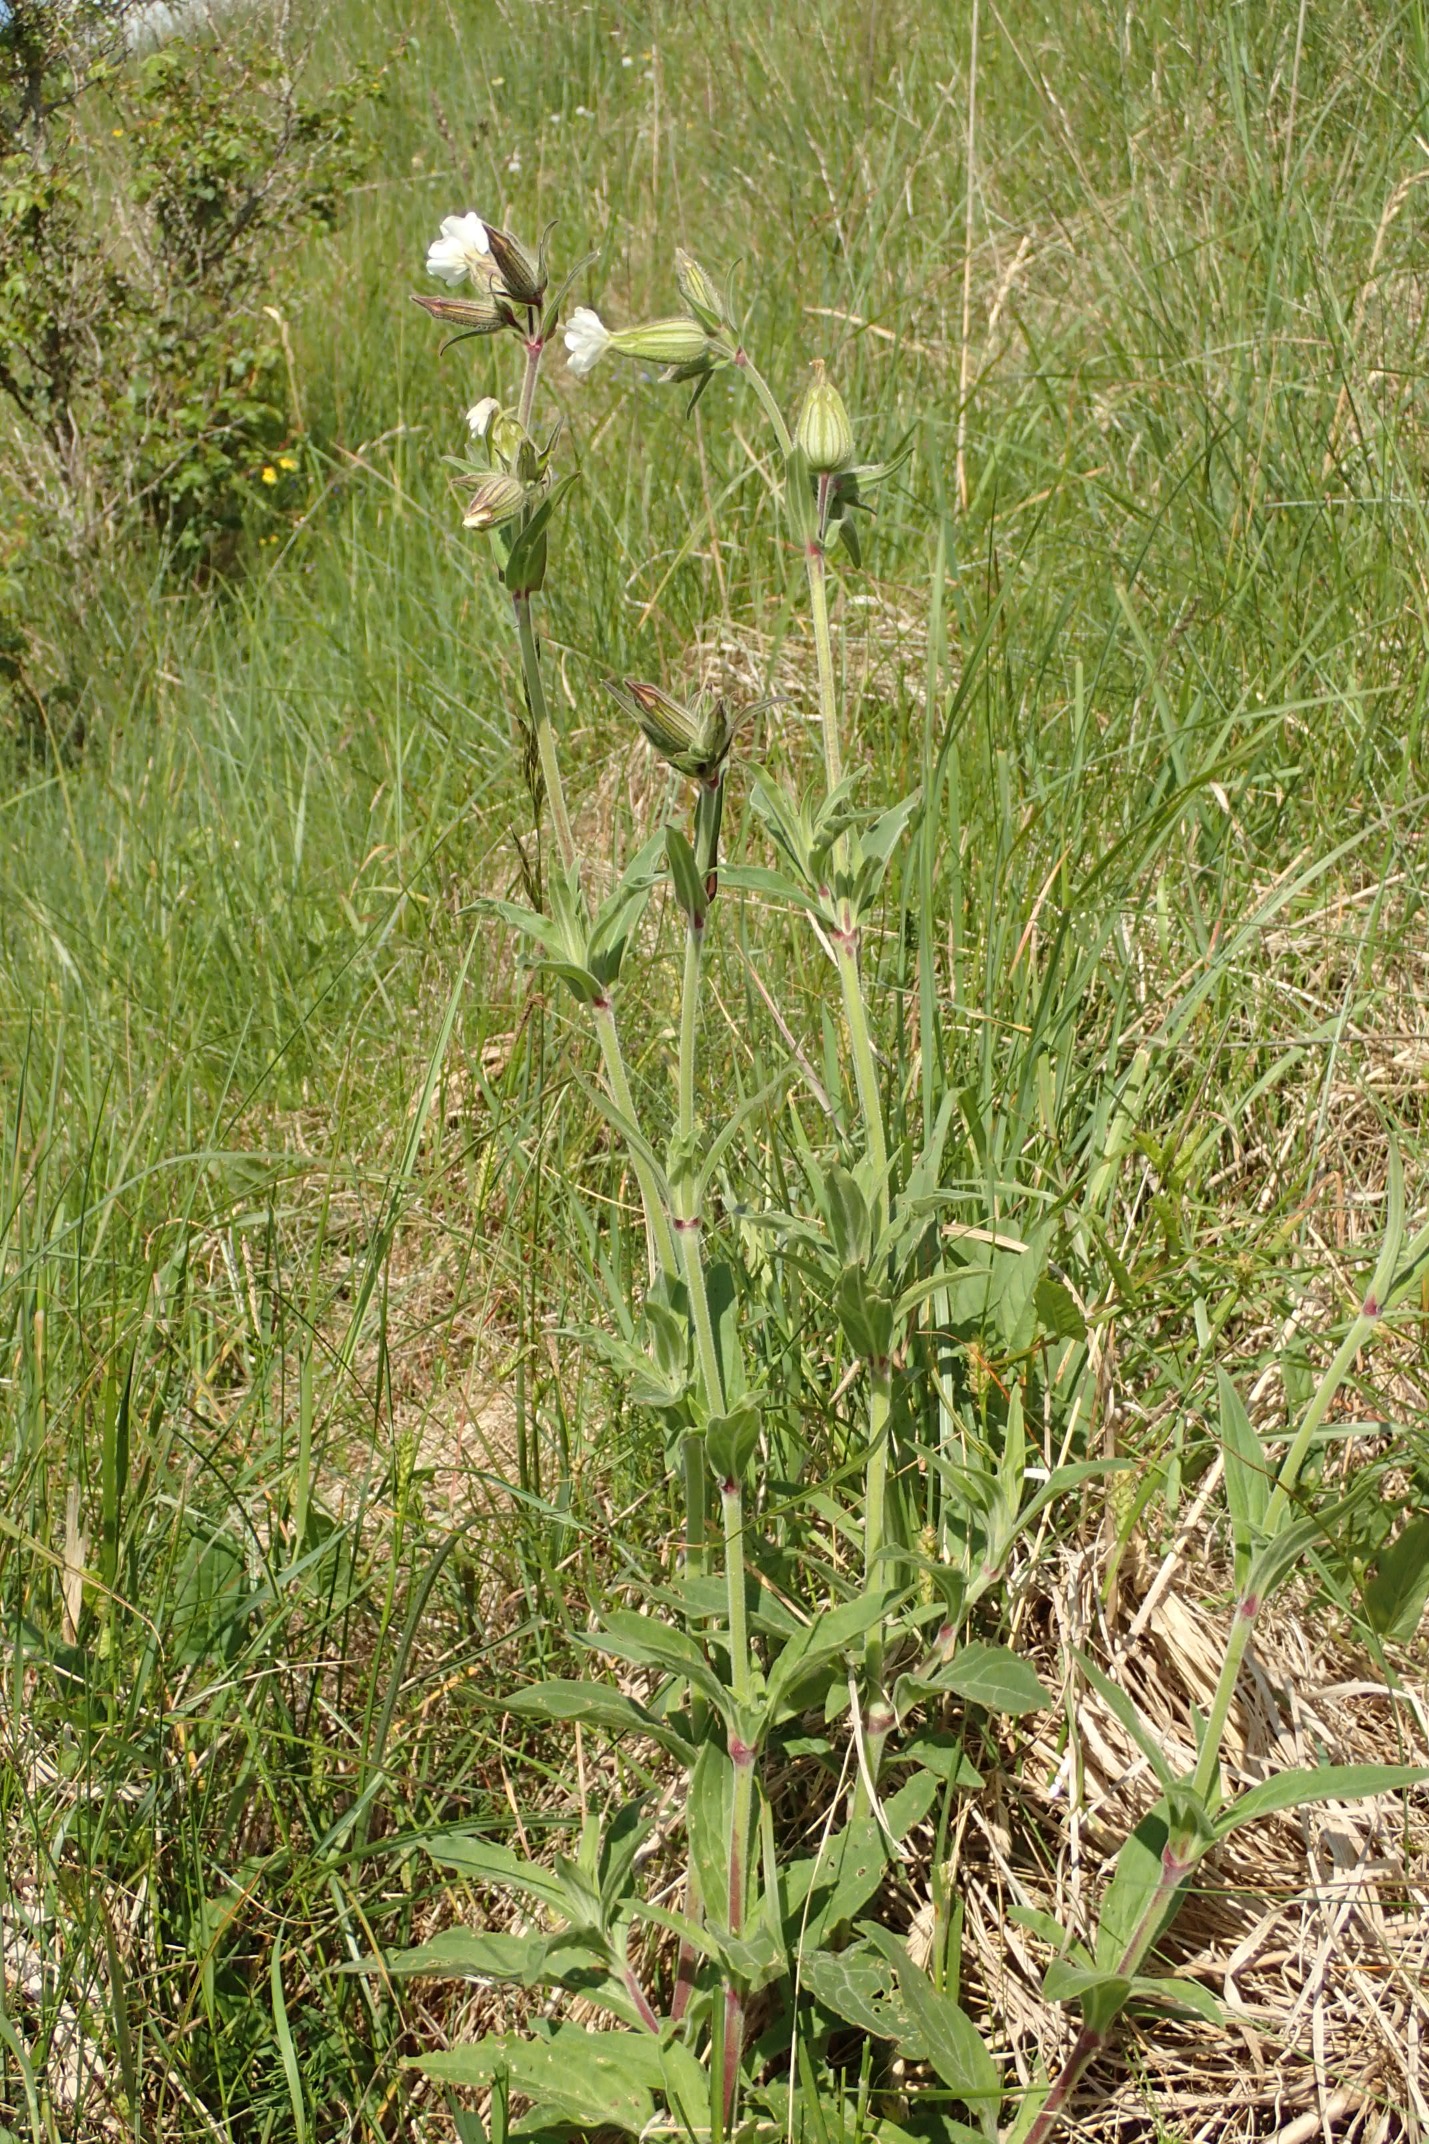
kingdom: Plantae
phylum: Tracheophyta
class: Magnoliopsida
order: Caryophyllales
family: Caryophyllaceae
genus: Silene
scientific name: Silene latifolia
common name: Aftenpragtstjerne
